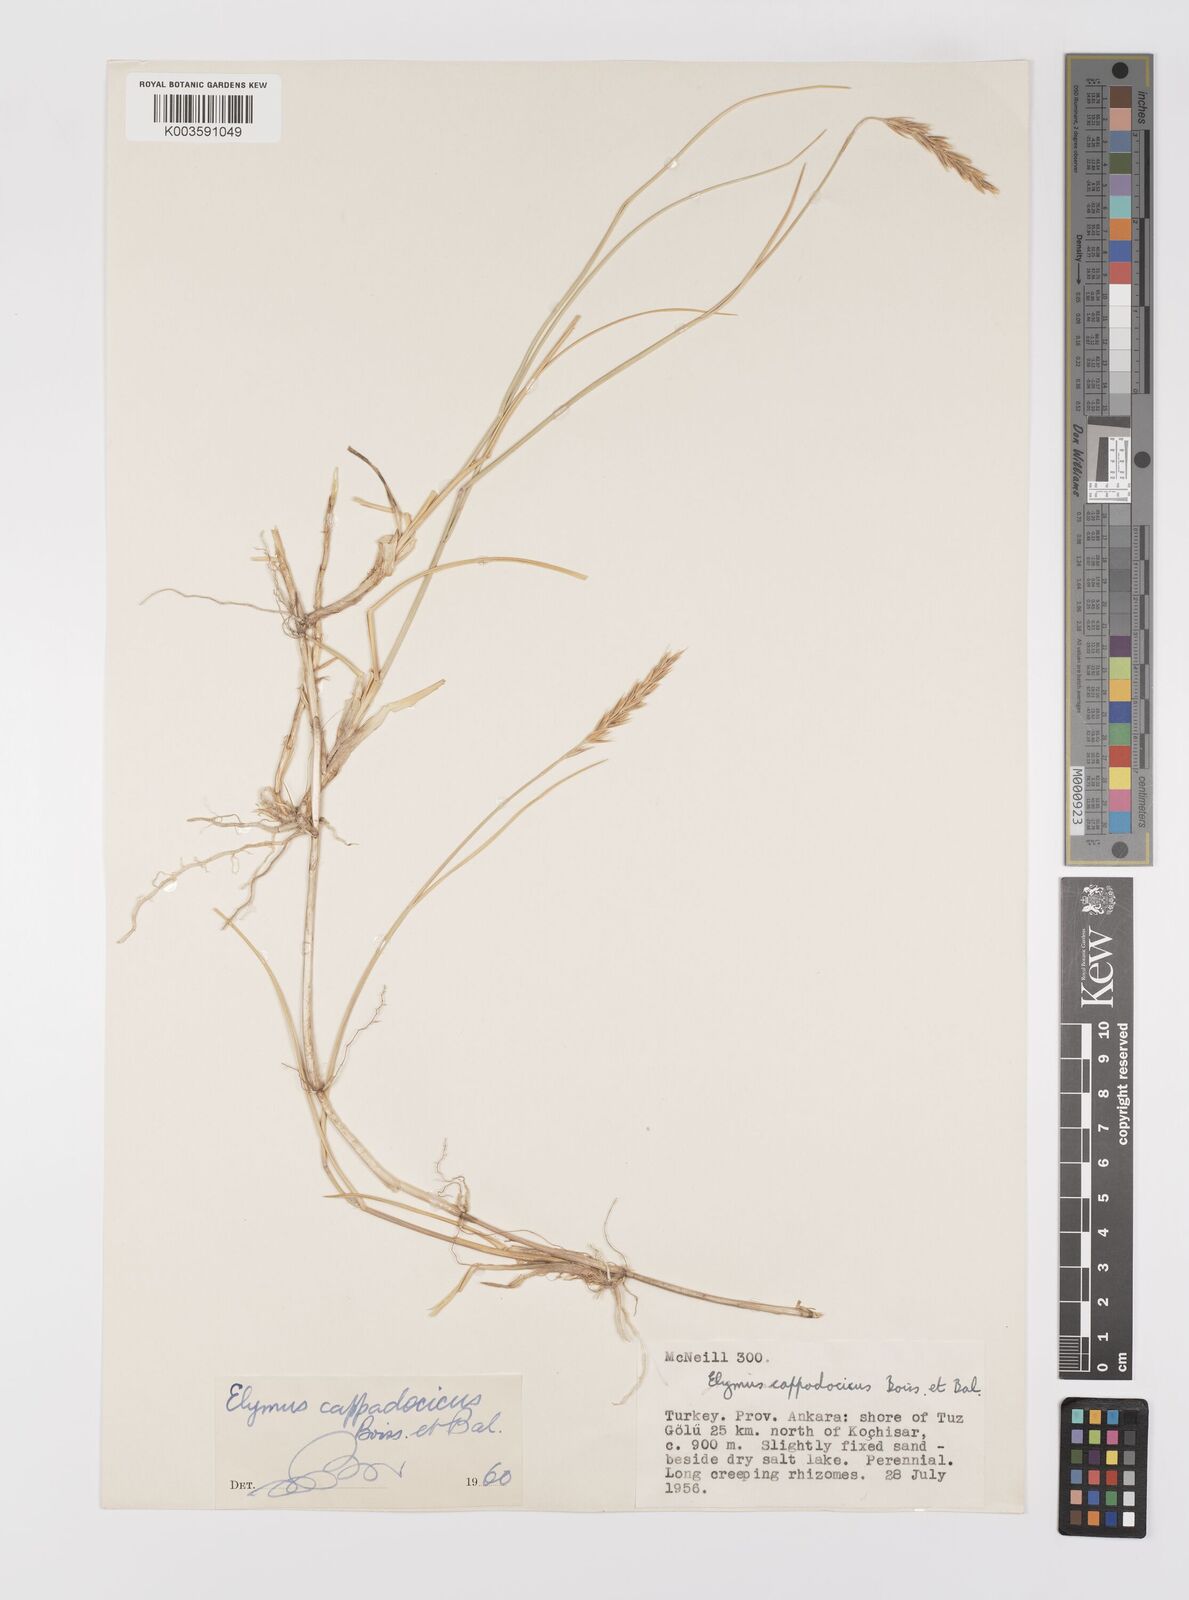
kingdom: Plantae
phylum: Tracheophyta
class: Liliopsida
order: Poales
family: Poaceae
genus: Leymus
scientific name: Leymus cappadocicus
